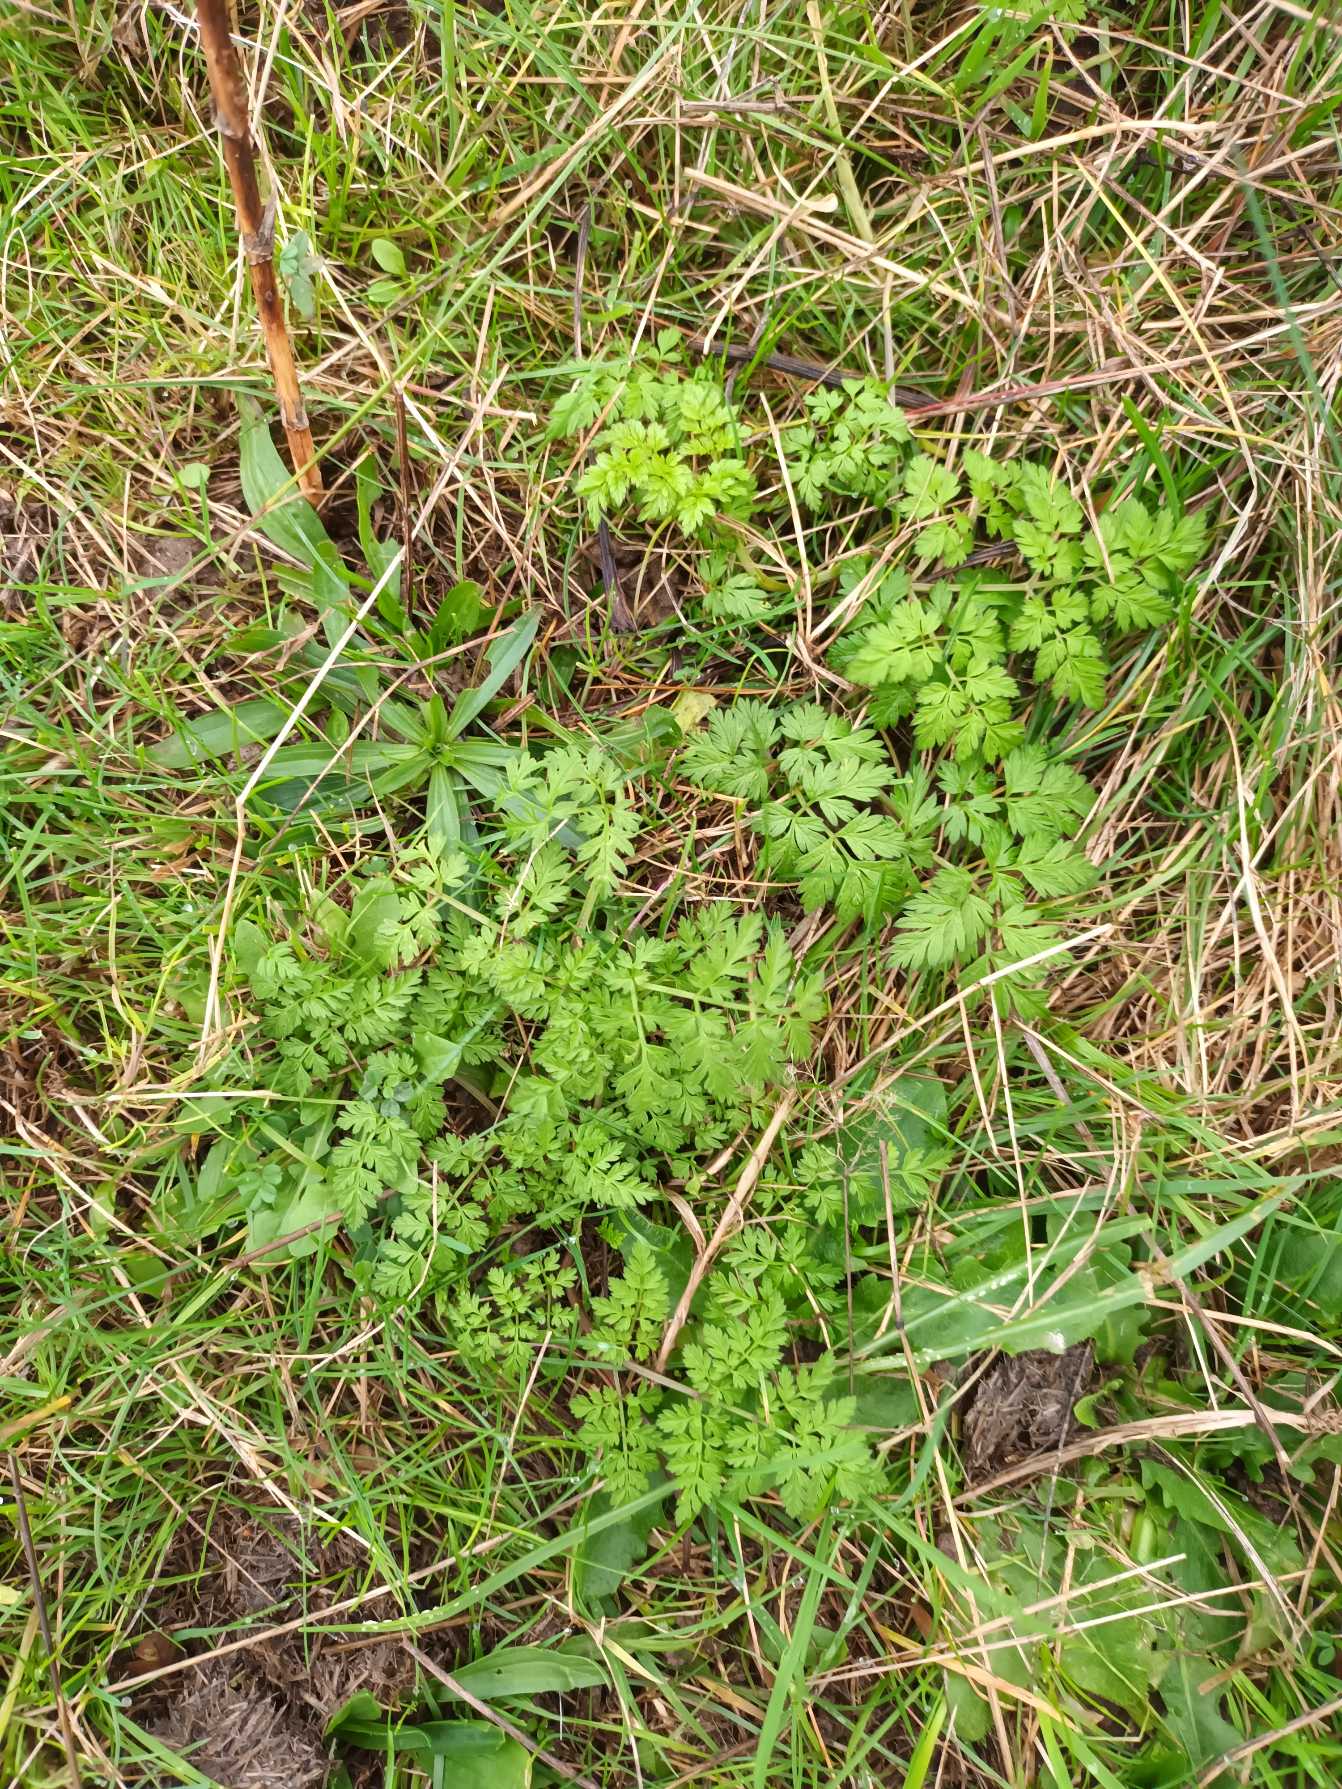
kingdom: Plantae
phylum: Tracheophyta
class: Magnoliopsida
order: Apiales
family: Apiaceae
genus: Anthriscus
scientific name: Anthriscus sylvestris
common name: Vild kørvel
